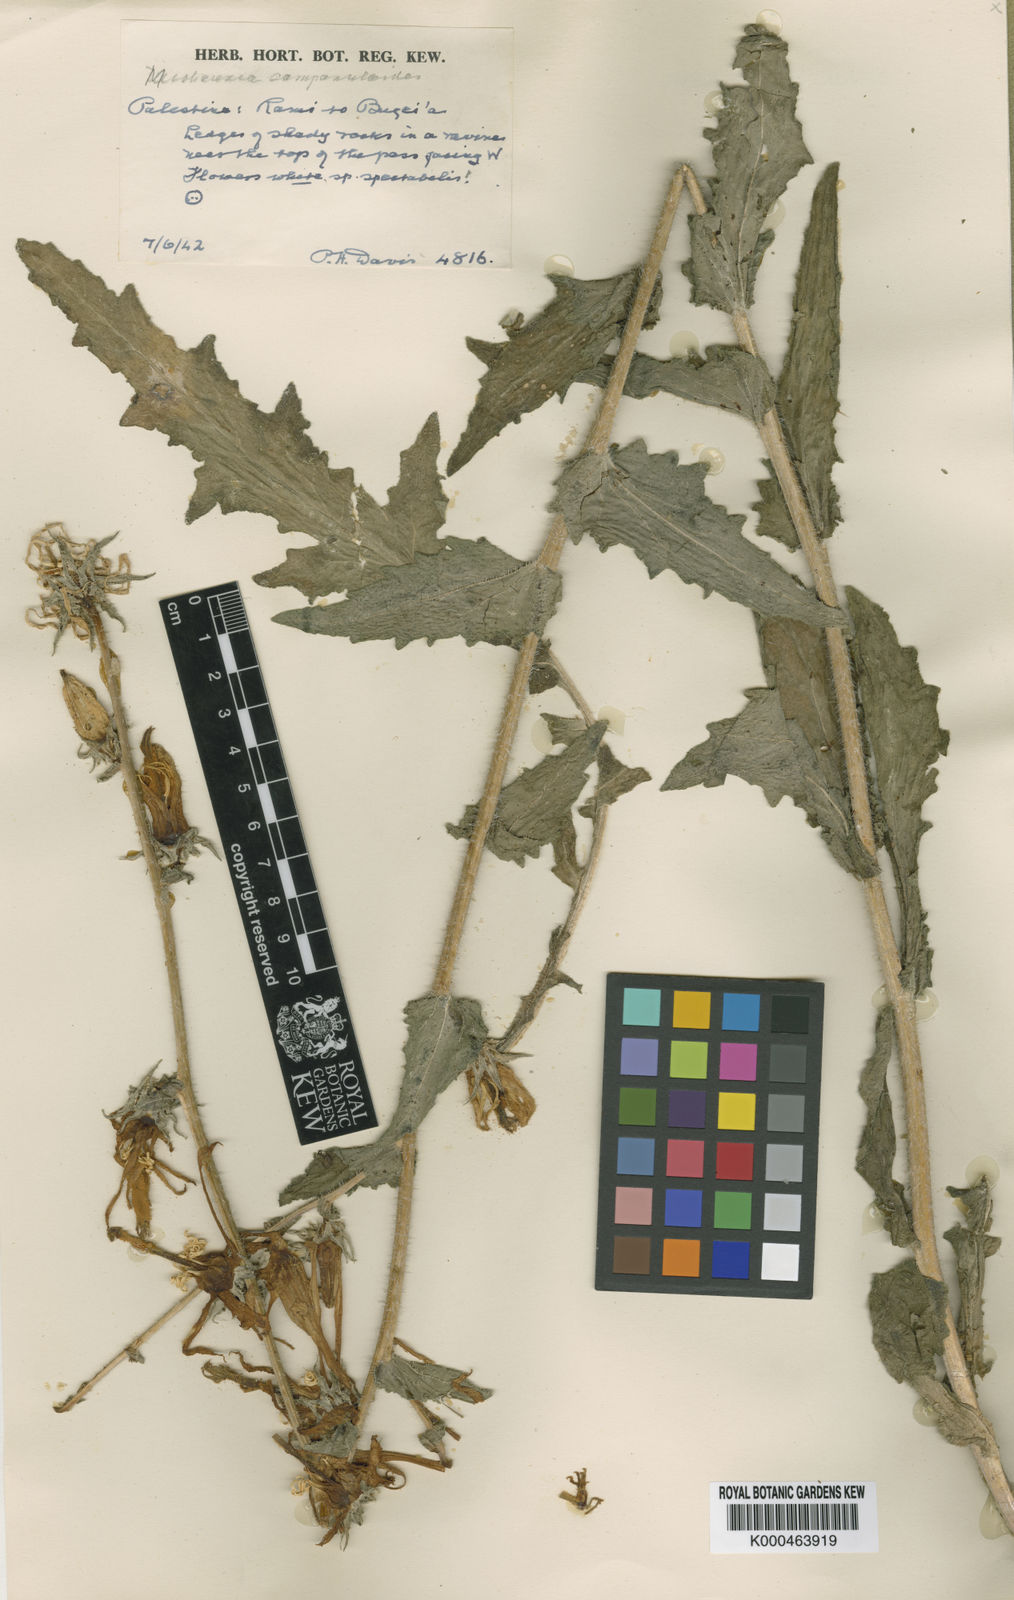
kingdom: Plantae
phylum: Tracheophyta
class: Magnoliopsida
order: Asterales
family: Campanulaceae
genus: Michauxia
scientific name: Michauxia
